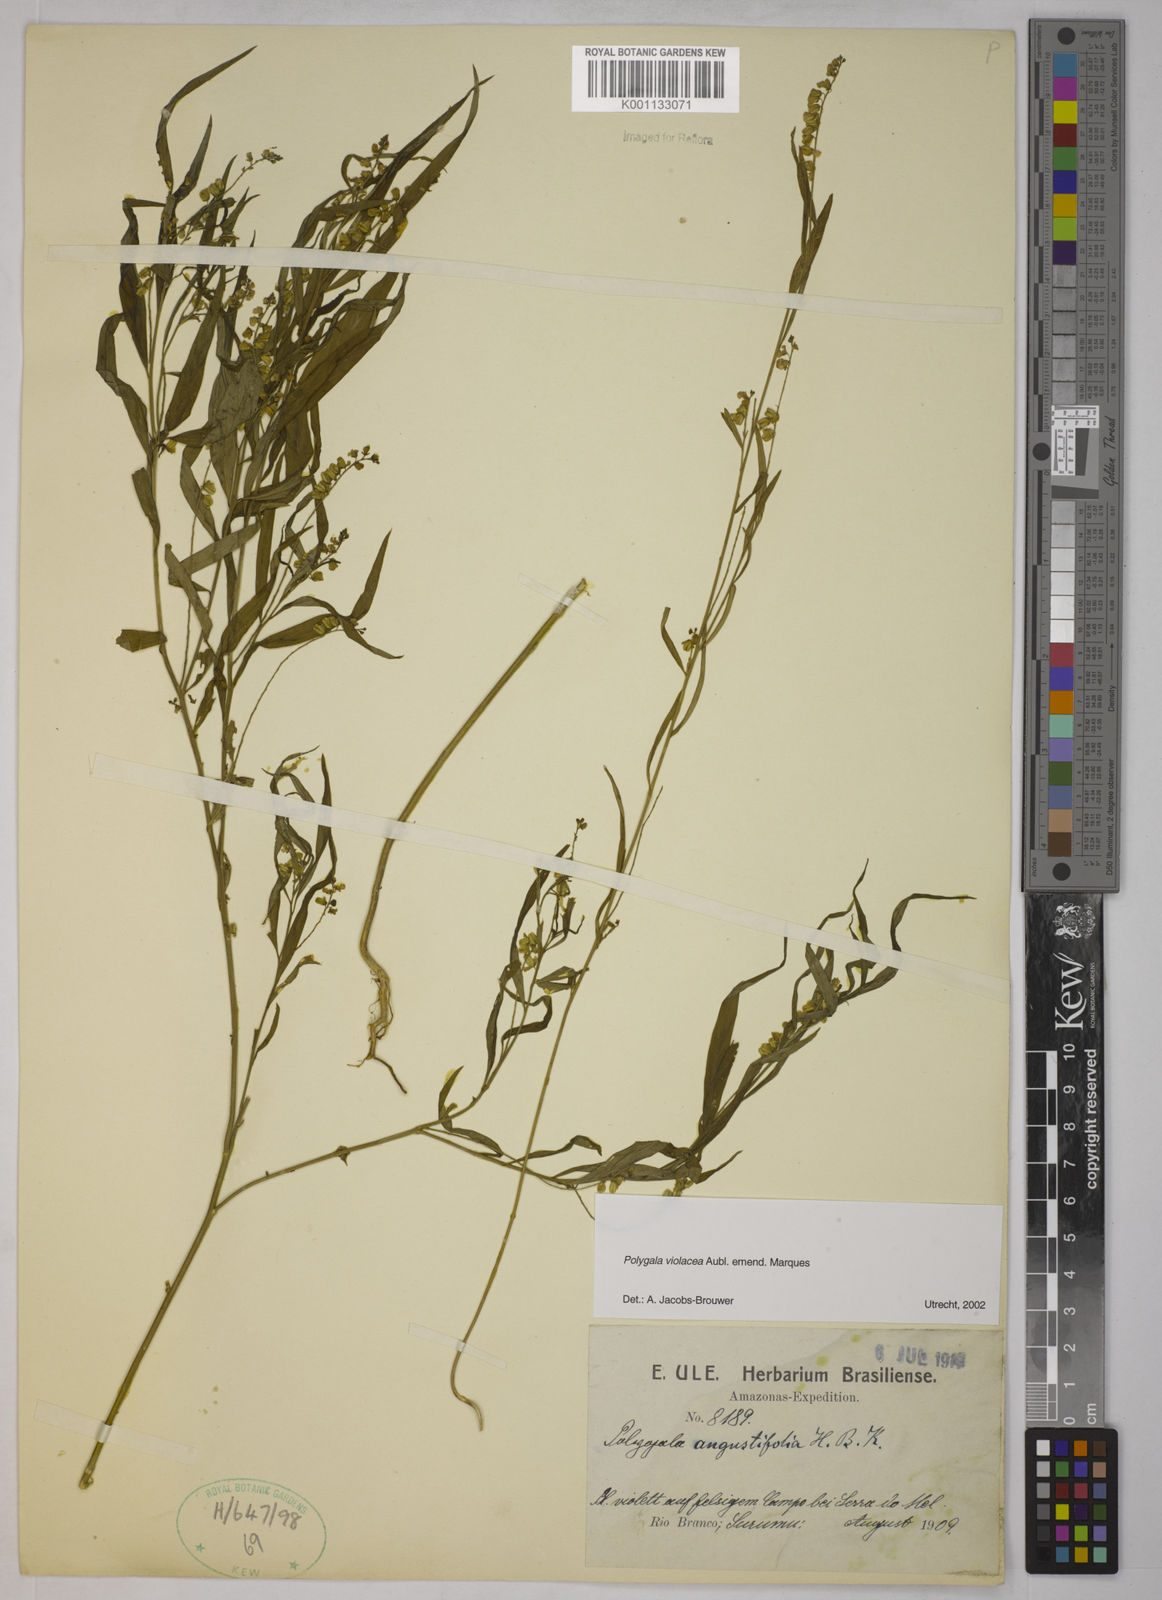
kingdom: Plantae
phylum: Tracheophyta
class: Magnoliopsida
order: Fabales
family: Polygalaceae
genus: Polygala
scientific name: Polygala
